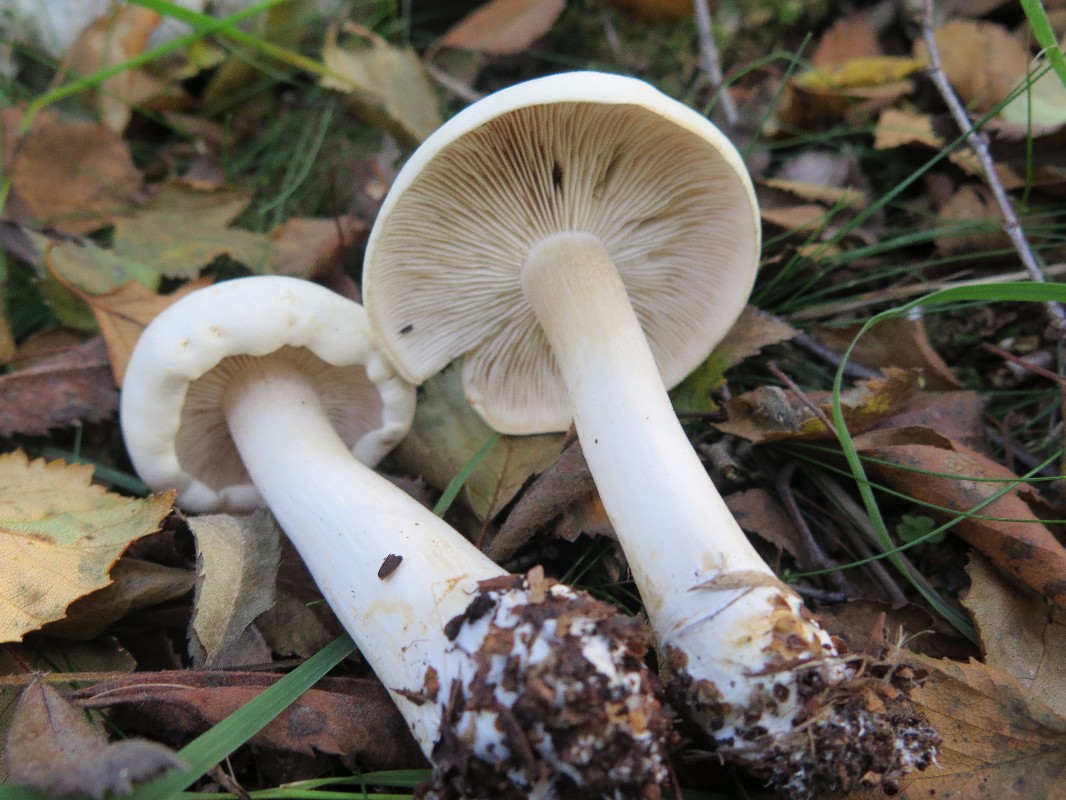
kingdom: Fungi
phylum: Basidiomycota
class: Agaricomycetes
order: Agaricales
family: Tricholomataceae
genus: Tricholoma
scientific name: Tricholoma stiparophyllum
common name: hvid ridderhat
